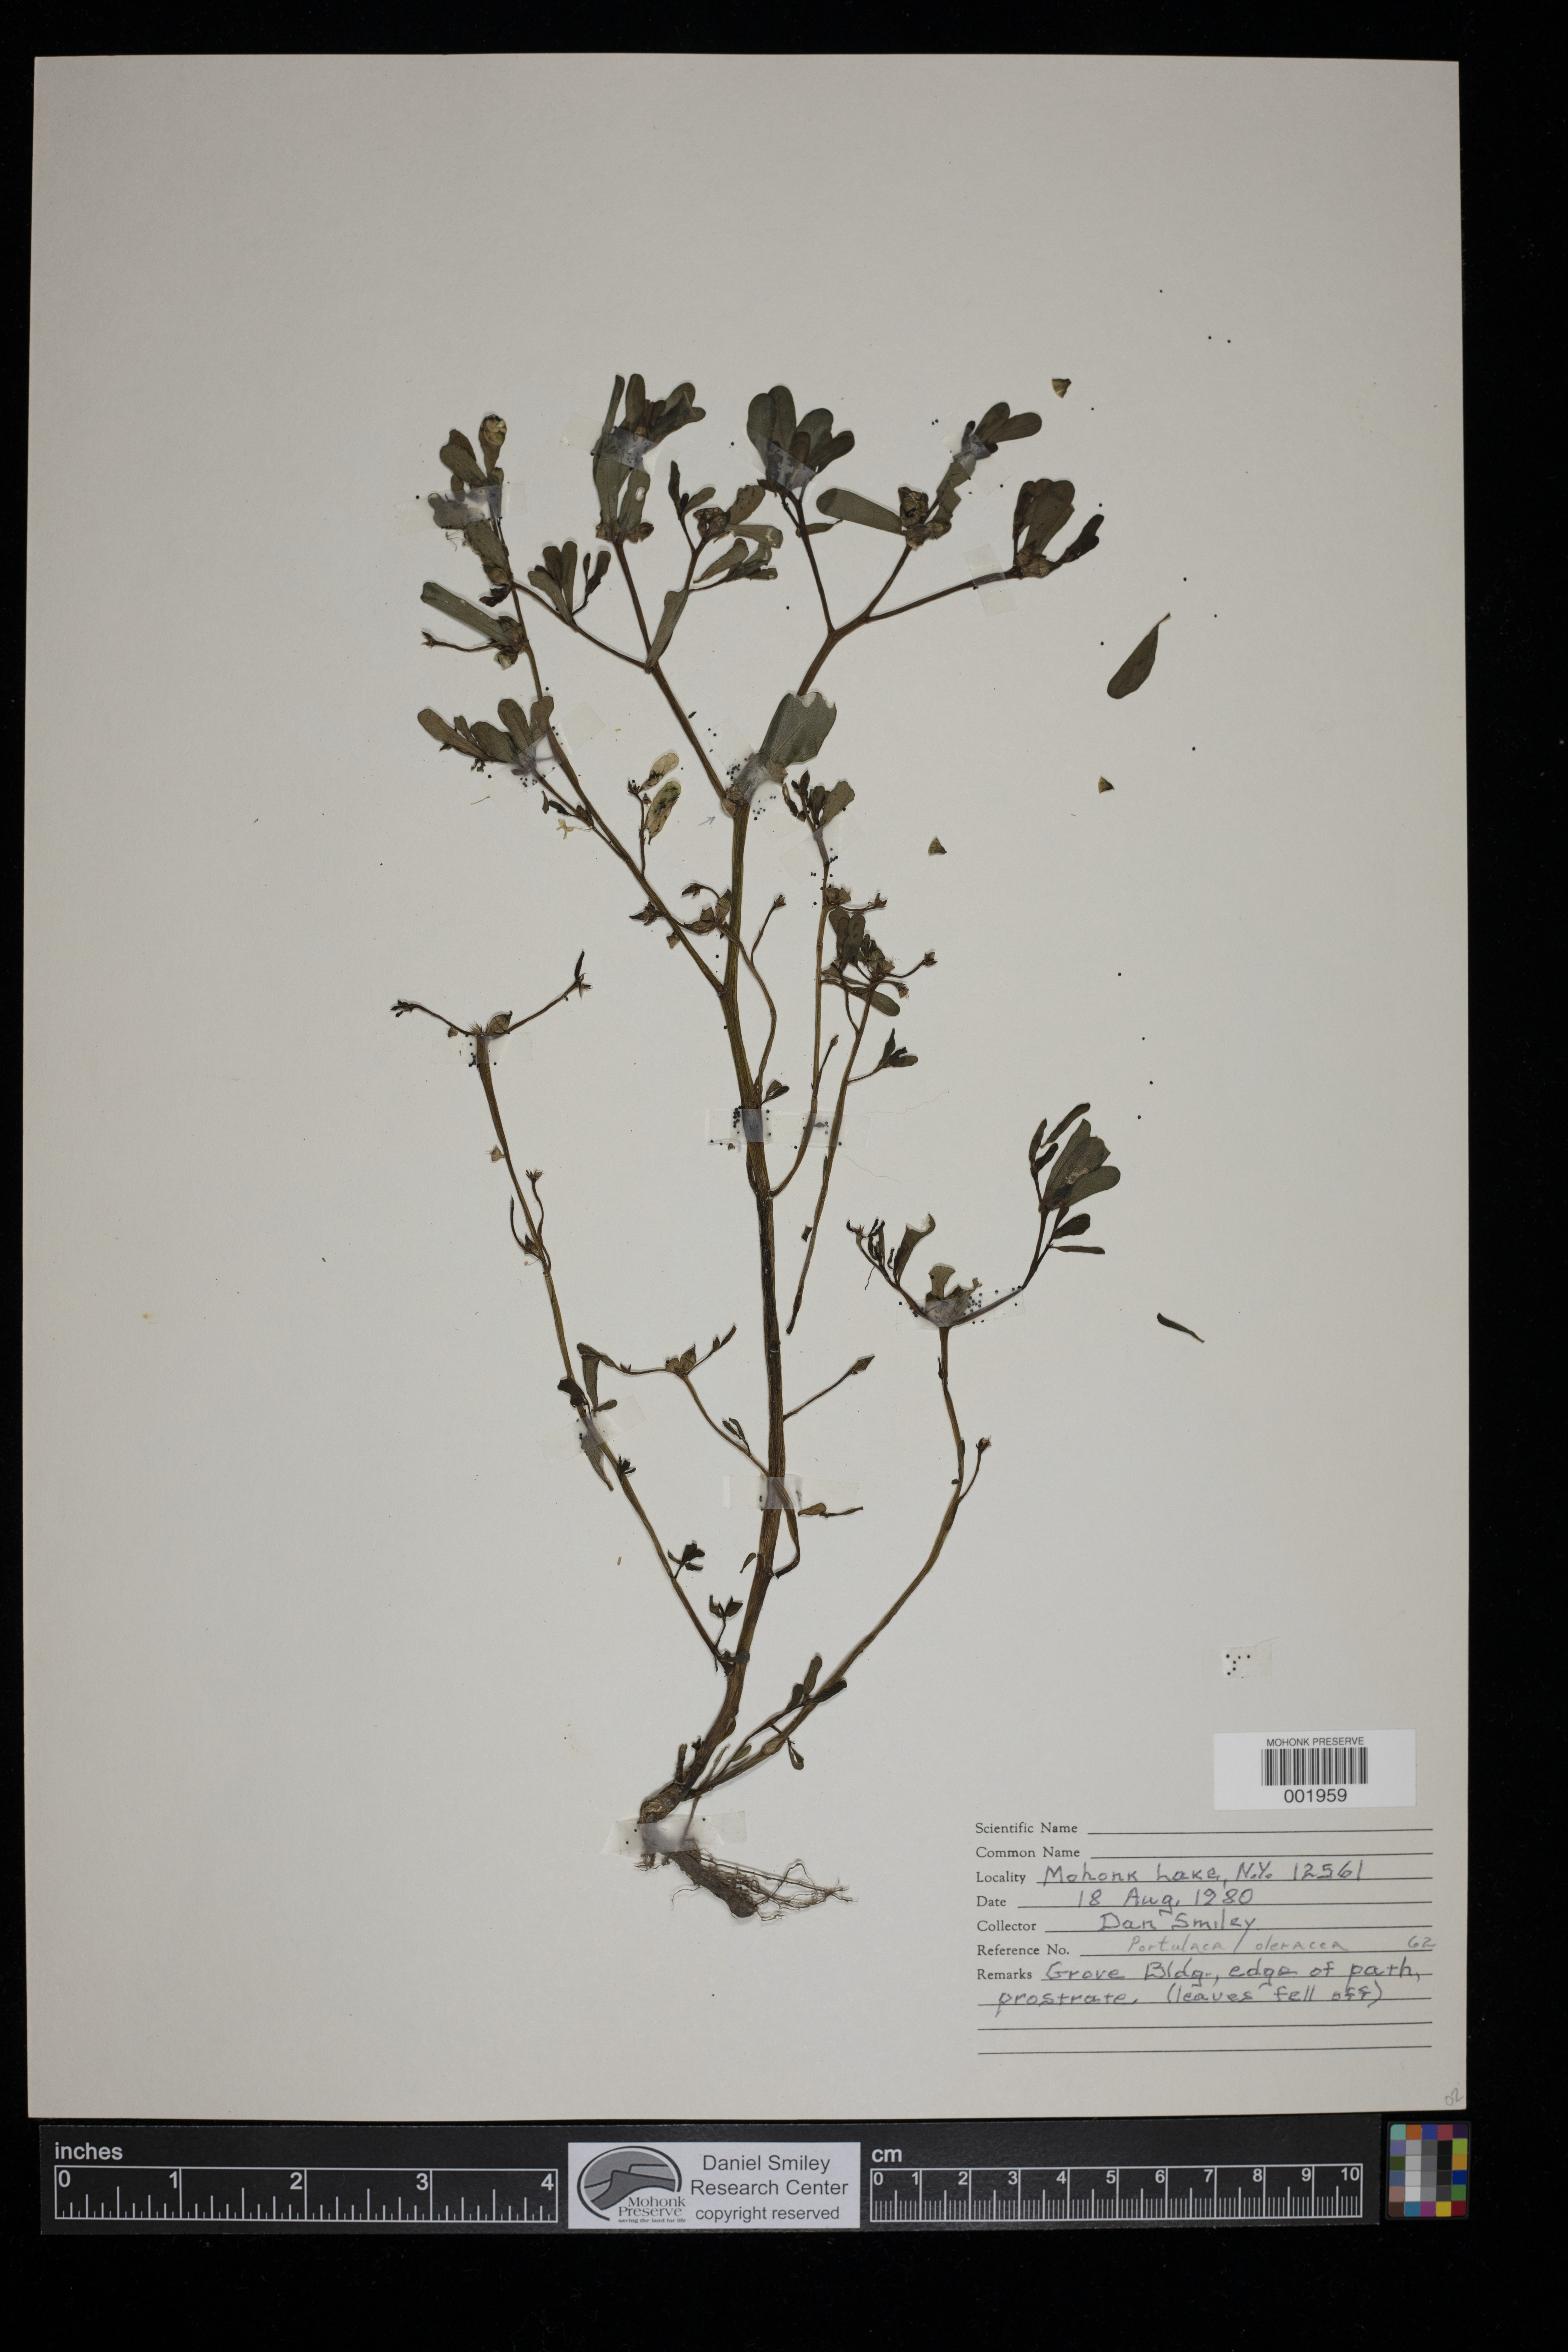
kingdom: Plantae
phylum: Tracheophyta
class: Magnoliopsida
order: Caryophyllales
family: Portulacaceae
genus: Portulaca
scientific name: Portulaca oleracea
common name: Common purslane
